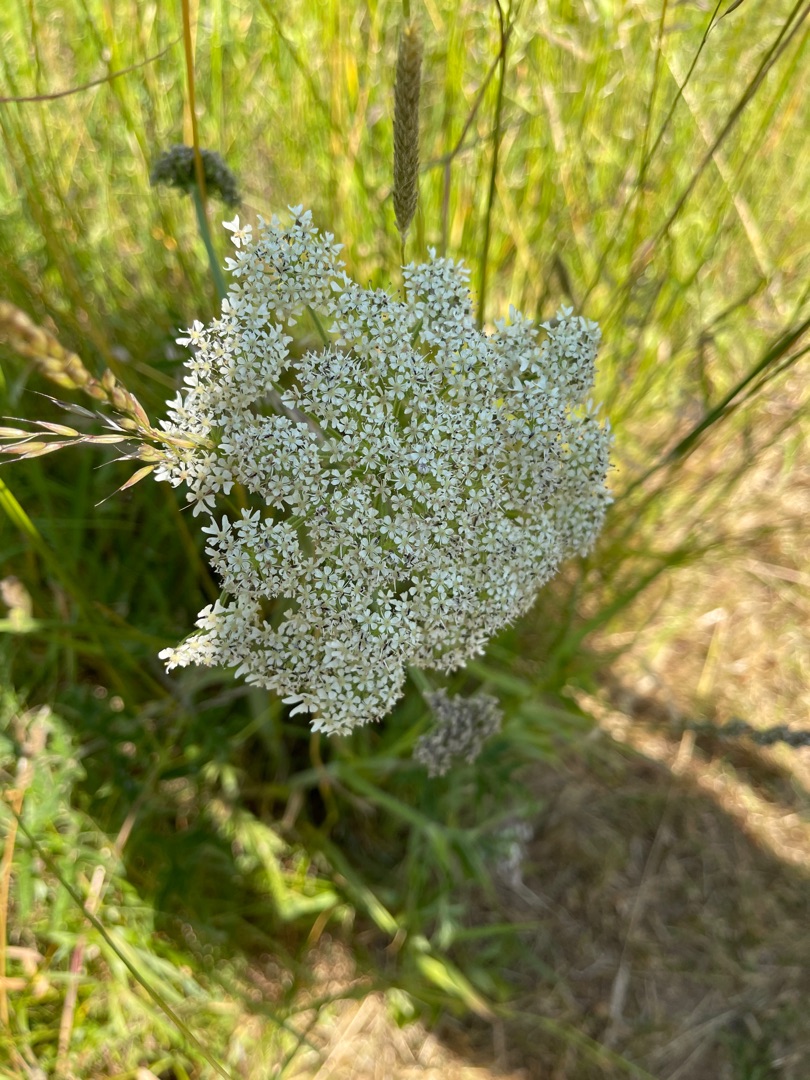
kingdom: Plantae
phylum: Tracheophyta
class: Magnoliopsida
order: Apiales
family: Apiaceae
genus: Heracleum
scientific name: Heracleum sphondylium
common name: Almindelig bjørneklo
